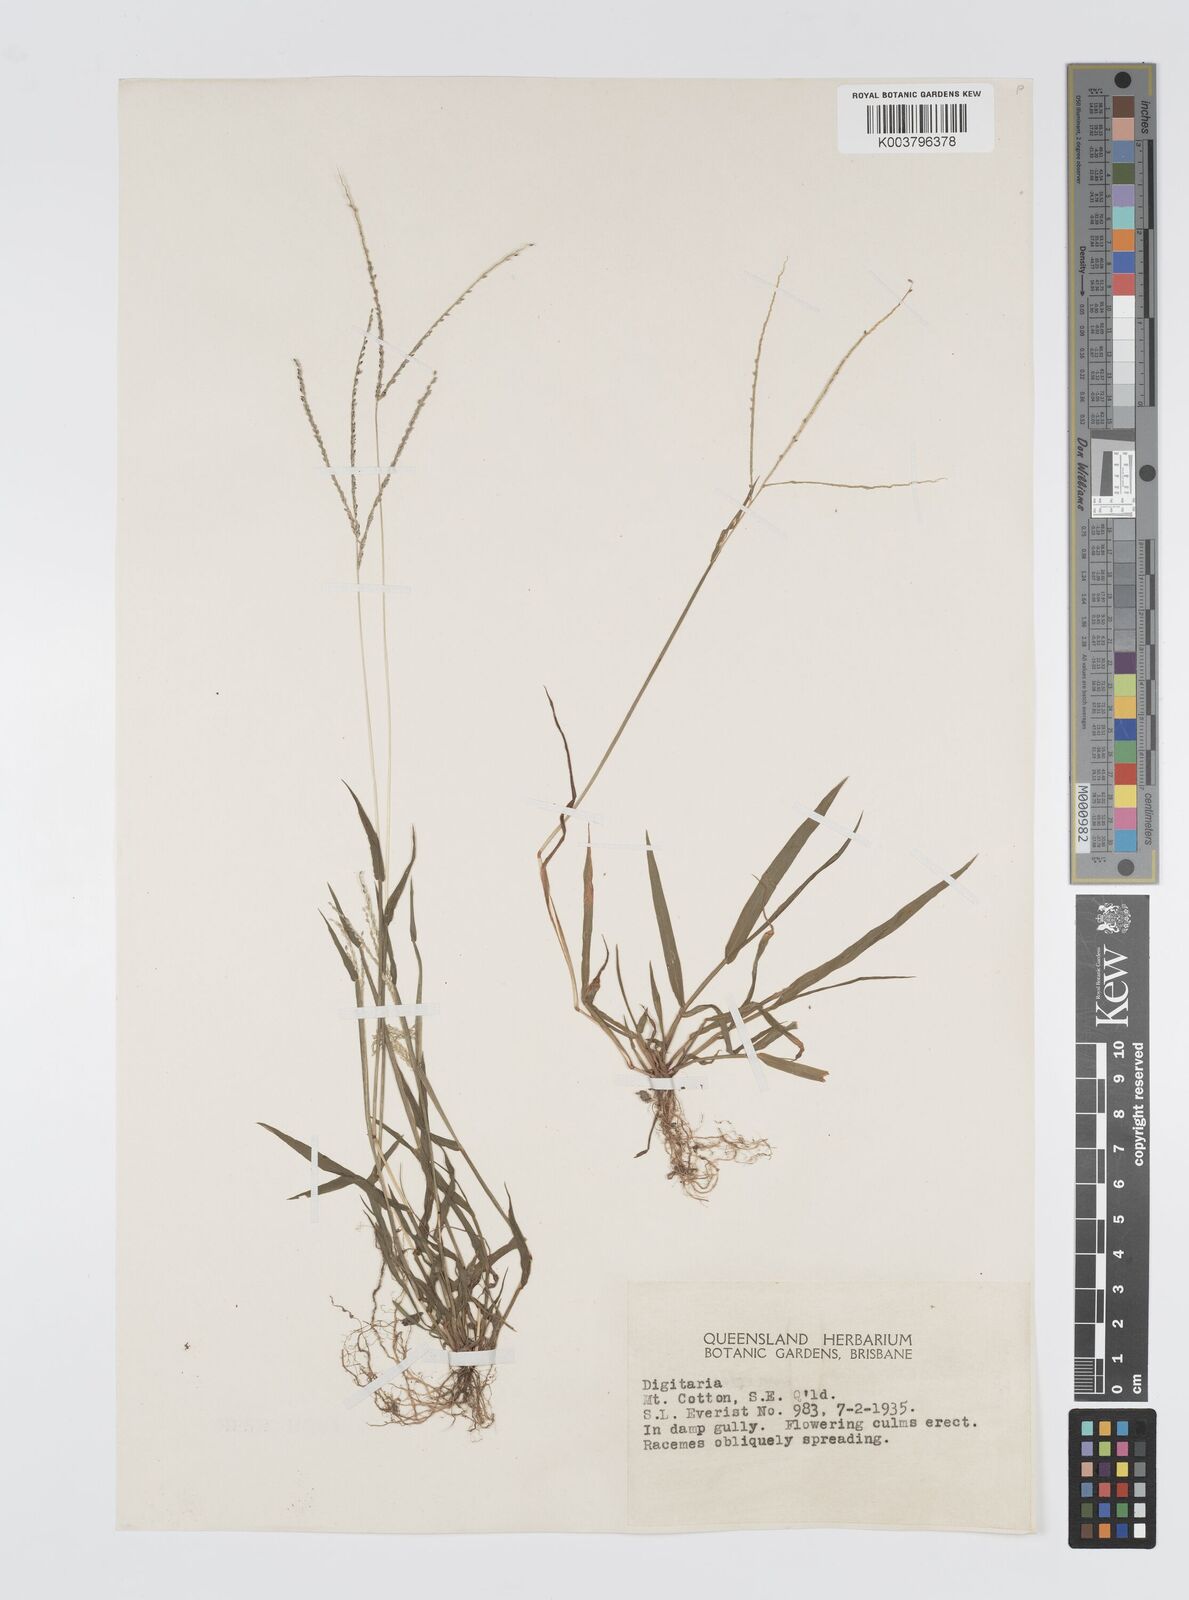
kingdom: Plantae
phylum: Tracheophyta
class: Liliopsida
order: Poales
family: Poaceae
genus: Digitaria
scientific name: Digitaria violascens
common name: Violet crabgrass
